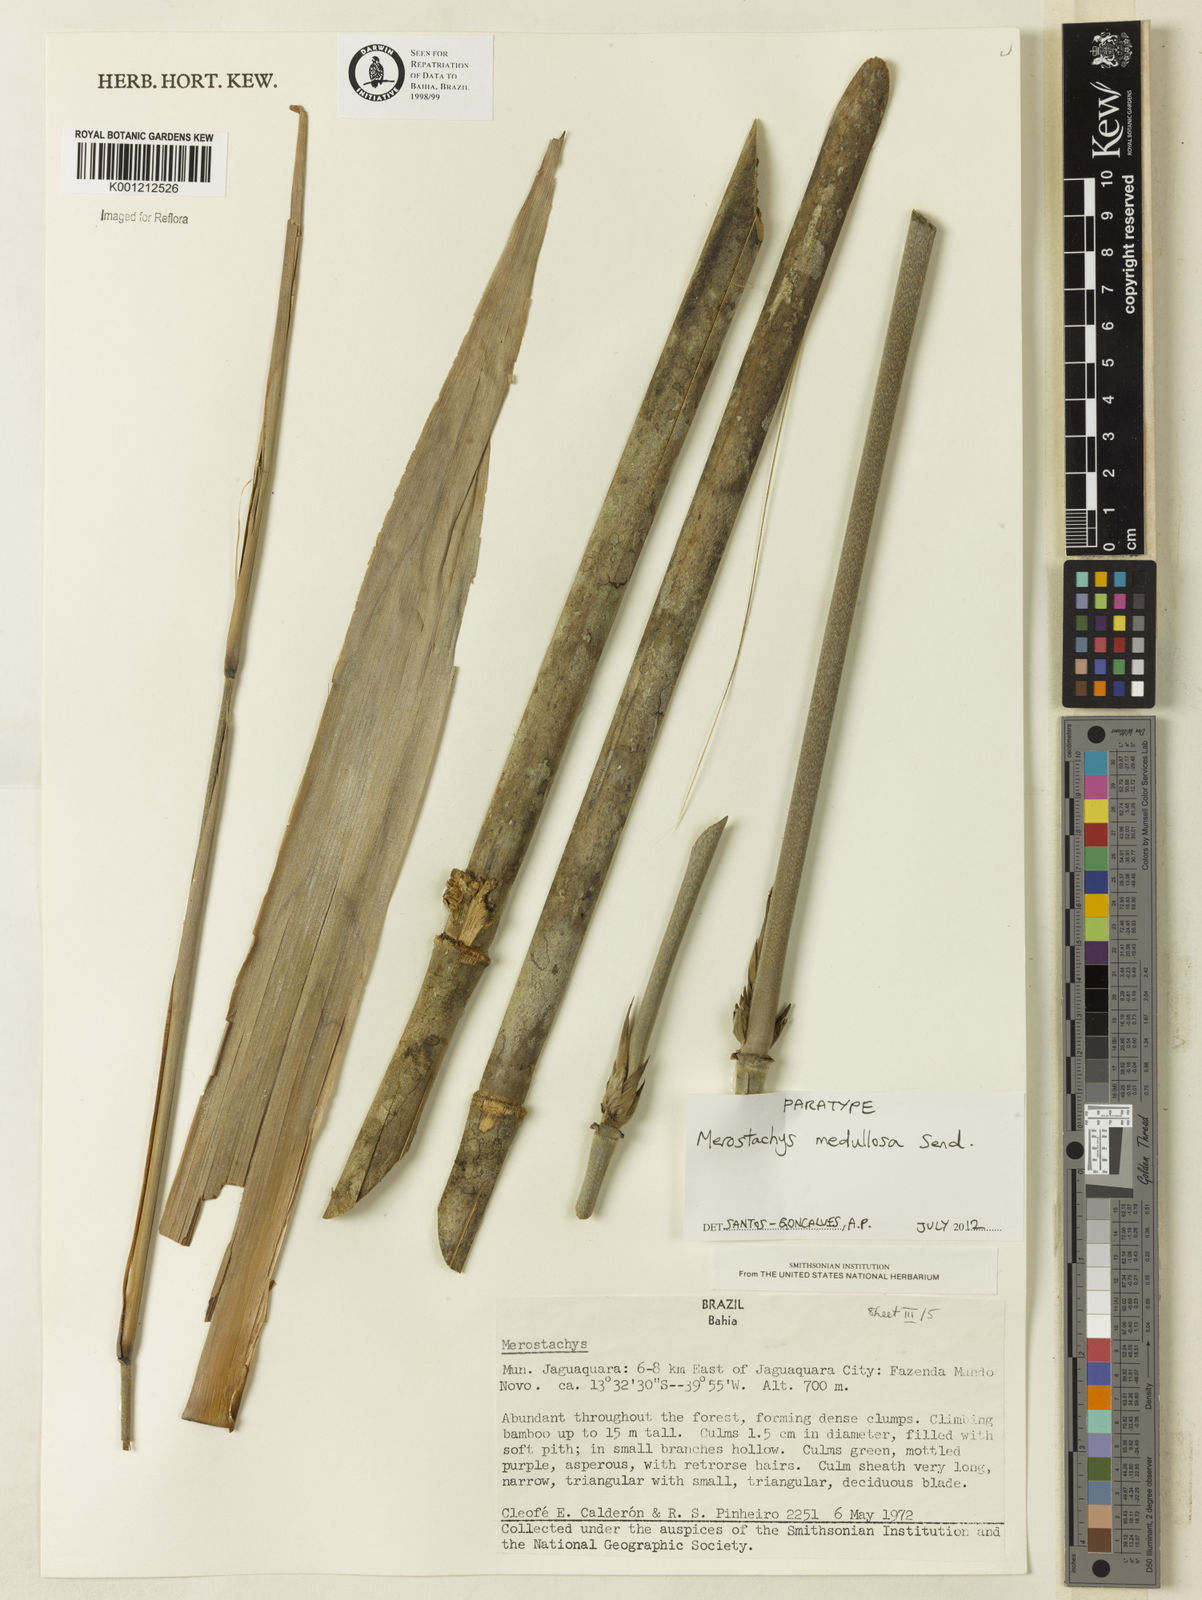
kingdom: Plantae
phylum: Tracheophyta
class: Liliopsida
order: Poales
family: Poaceae
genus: Merostachys
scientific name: Merostachys medullosa
